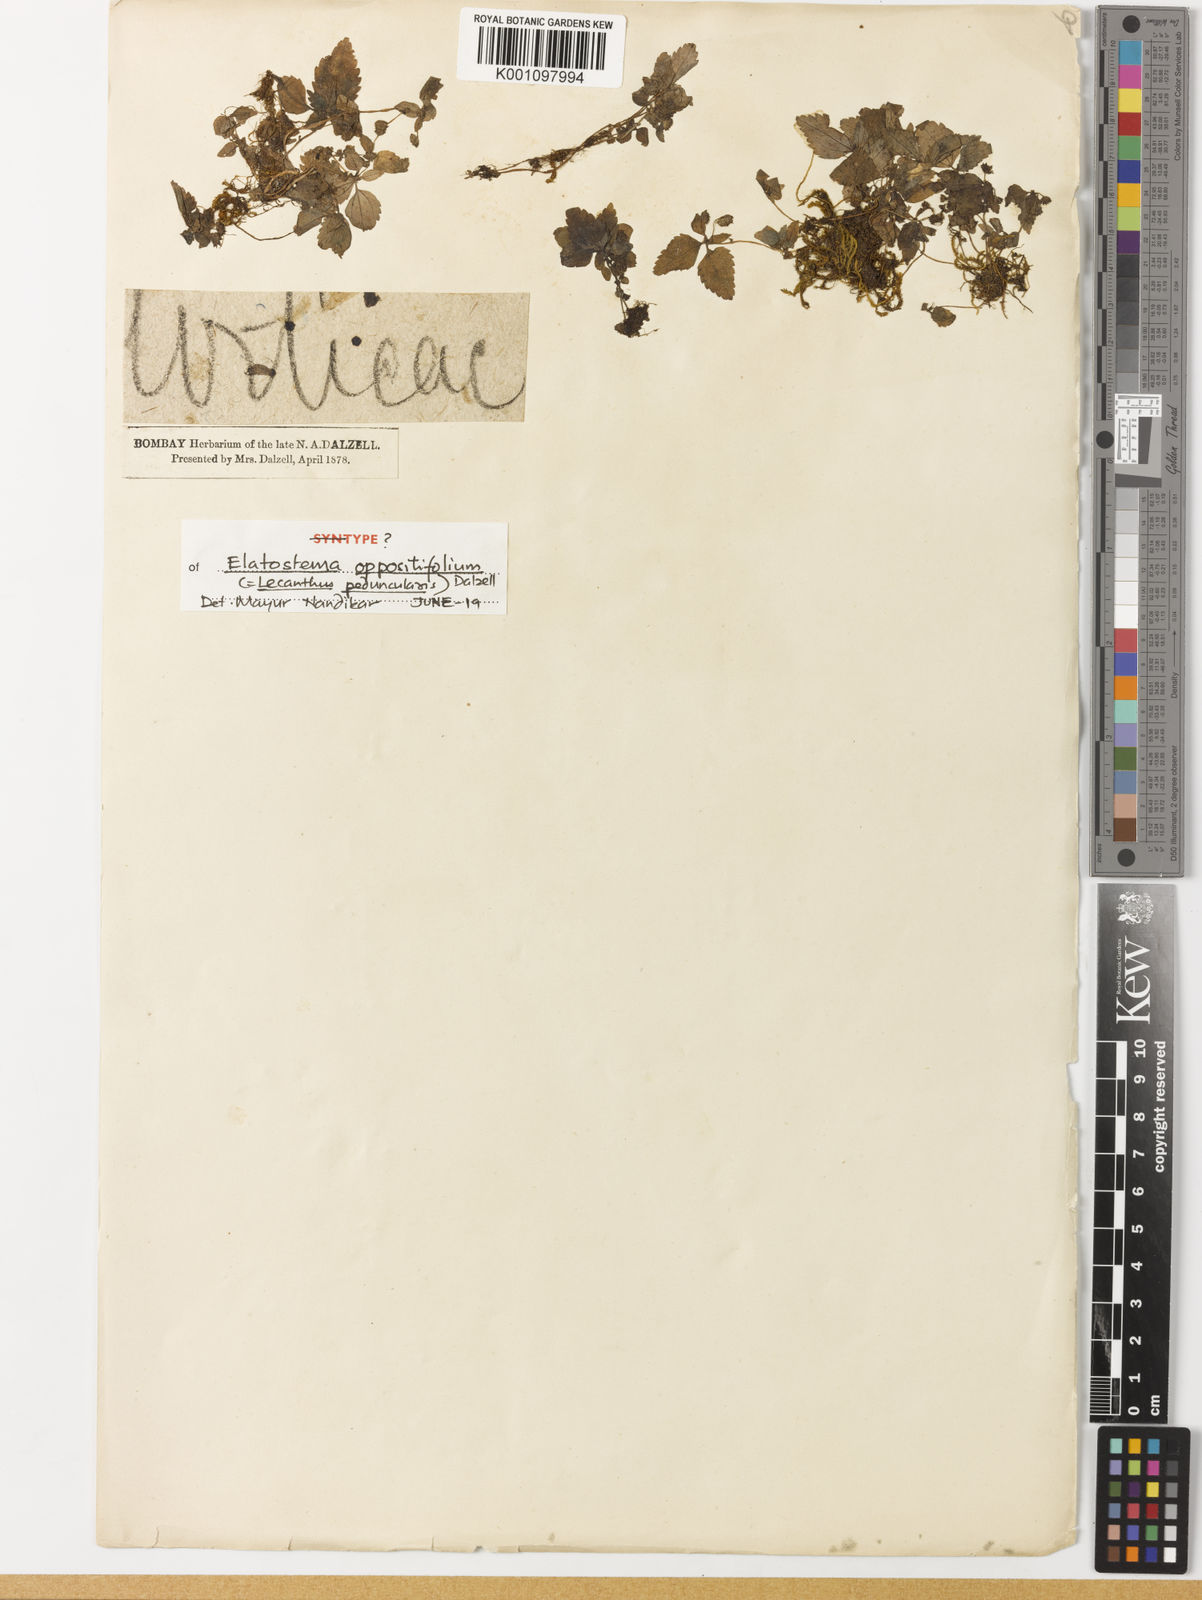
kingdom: Plantae
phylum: Tracheophyta
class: Magnoliopsida
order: Rosales
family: Urticaceae
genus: Lecanthus
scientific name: Lecanthus peduncularis
